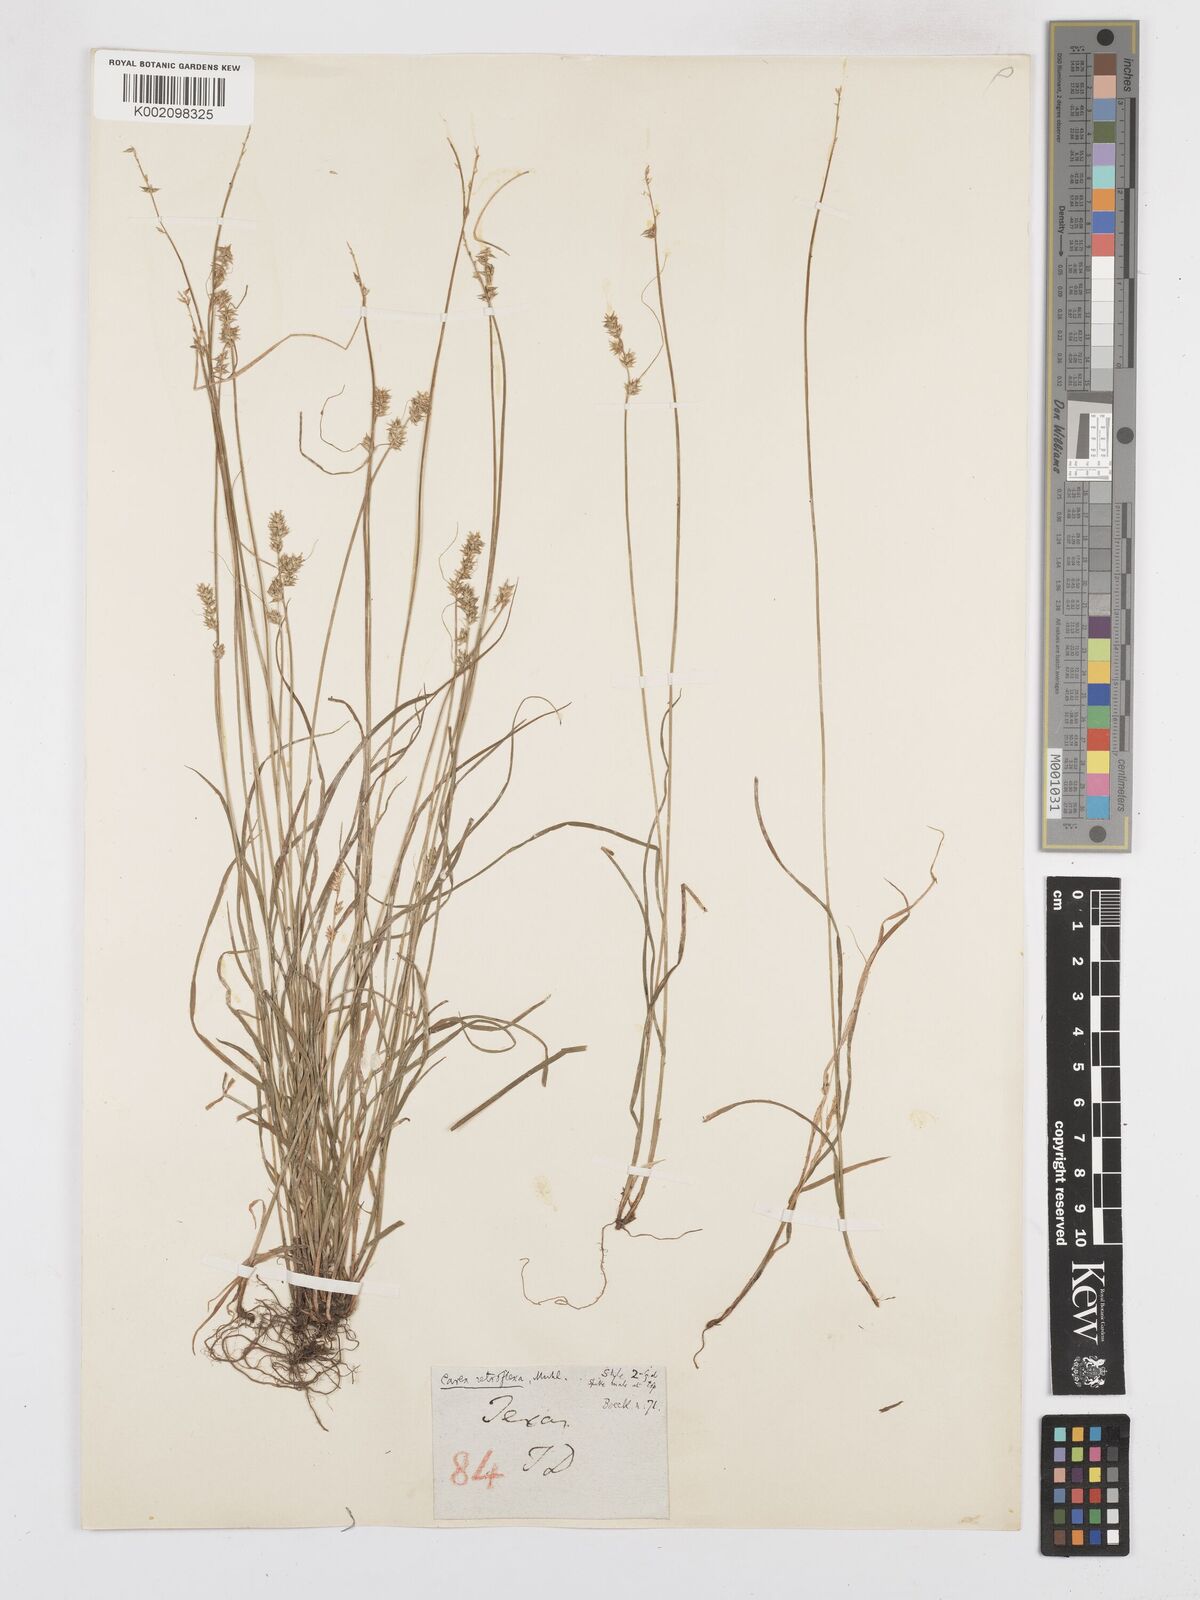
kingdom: Plantae
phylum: Tracheophyta
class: Liliopsida
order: Poales
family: Cyperaceae
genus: Carex
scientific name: Carex texensis
